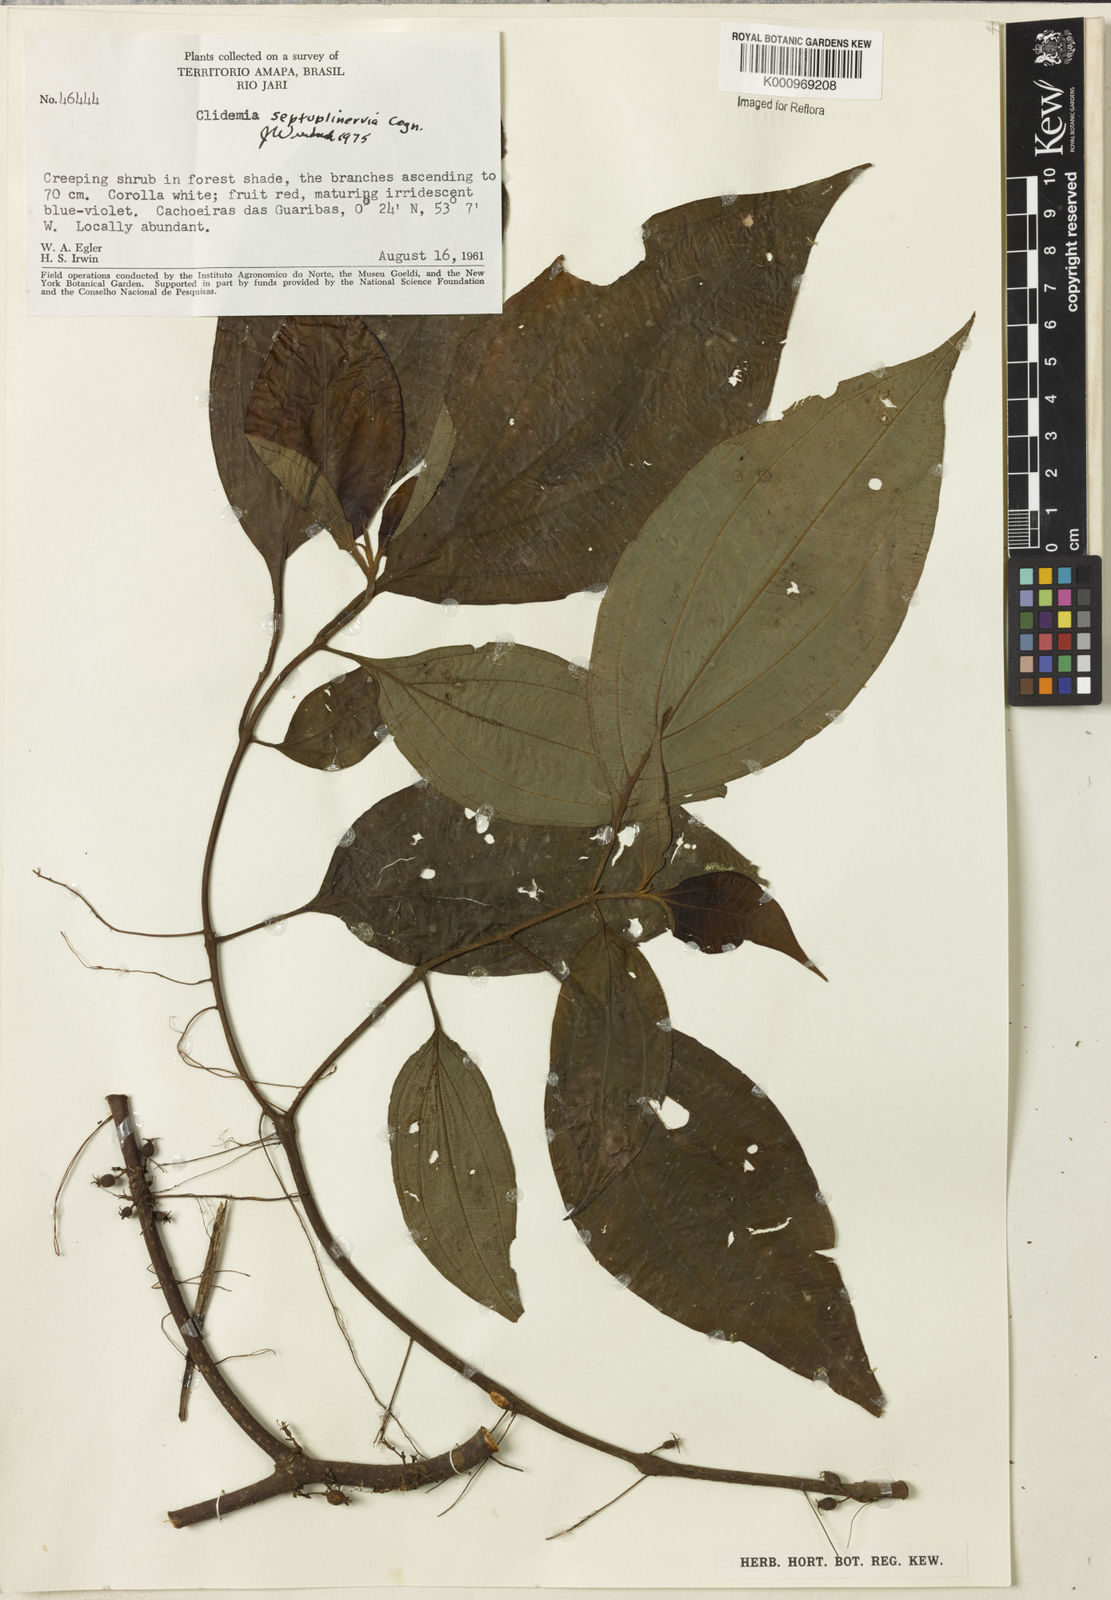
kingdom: Plantae
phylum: Tracheophyta
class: Magnoliopsida
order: Myrtales
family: Melastomataceae
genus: Miconia
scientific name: Miconia trichocalyx
